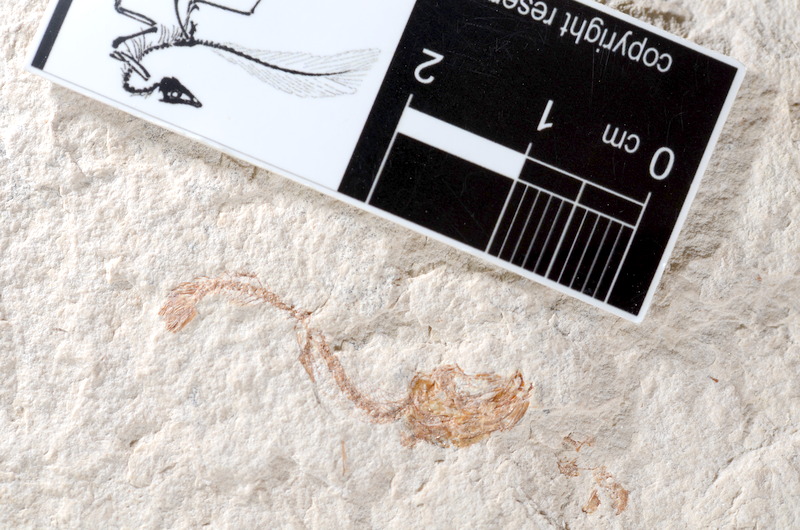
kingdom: Animalia
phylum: Chordata
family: Ascalaboidae
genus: Tharsis
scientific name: Tharsis dubius
